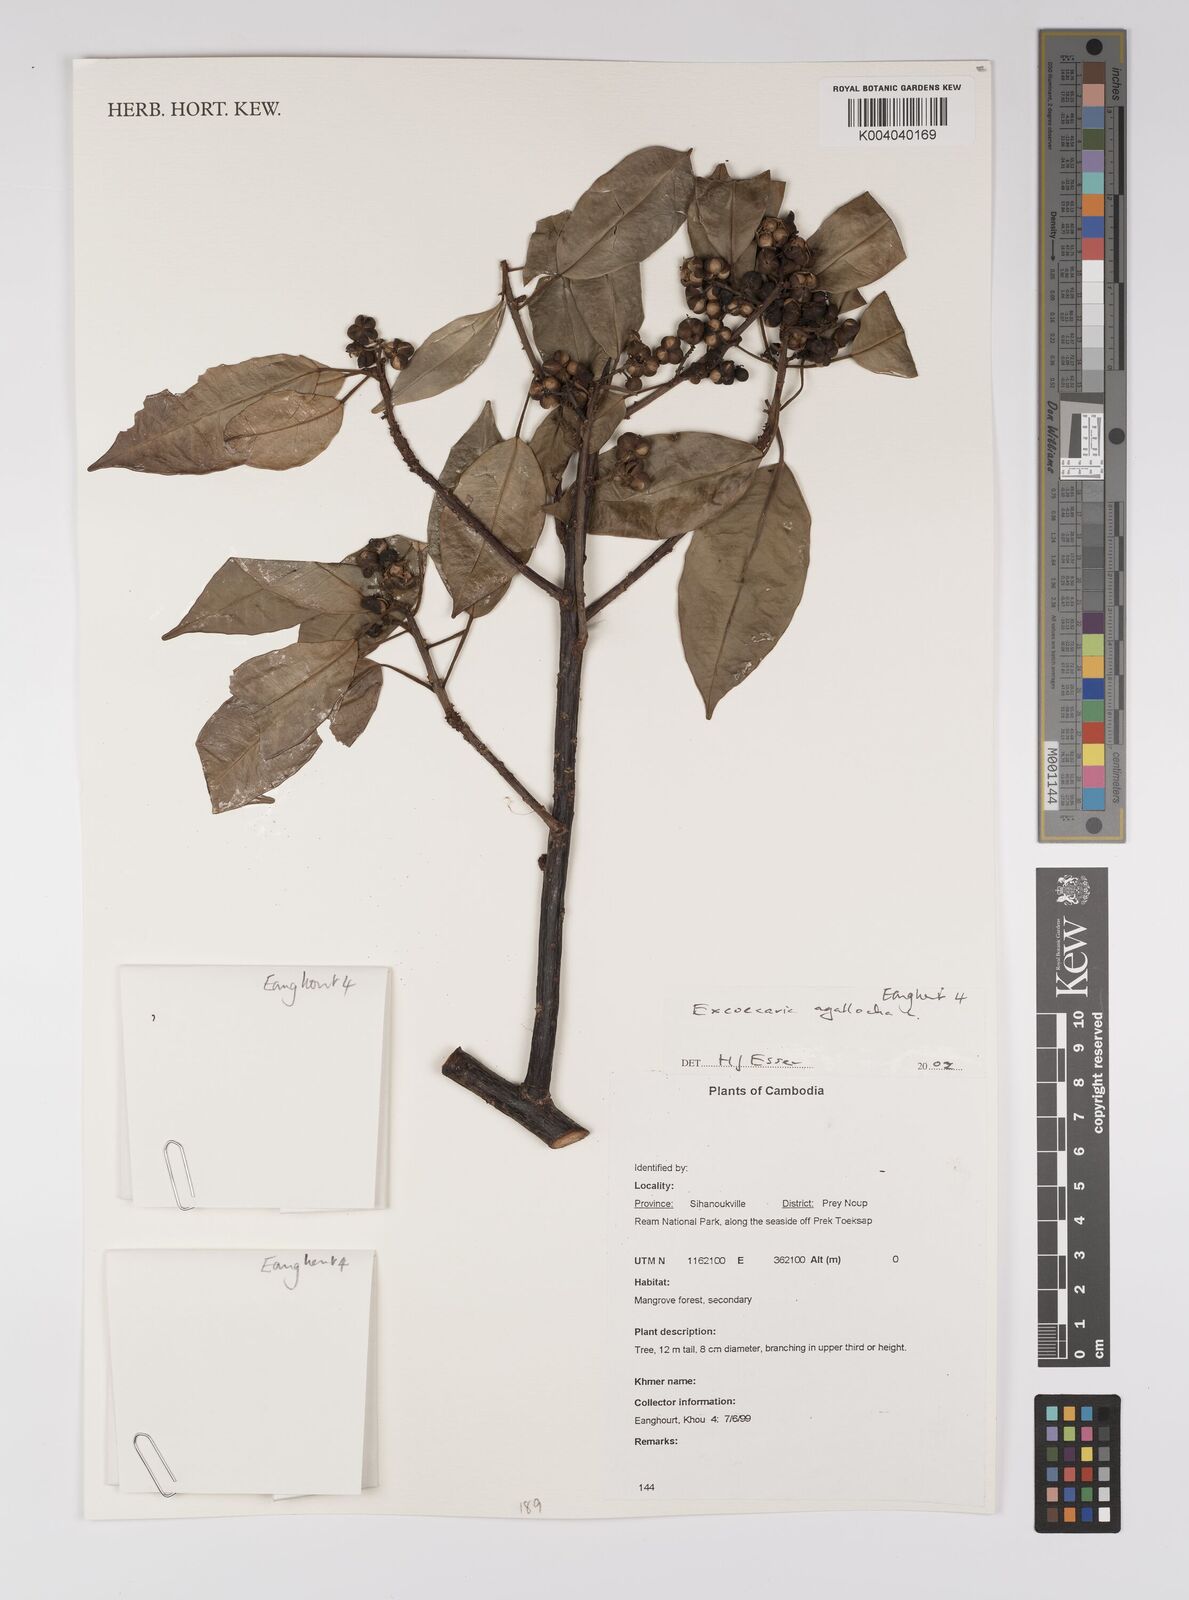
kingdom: Plantae
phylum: Tracheophyta
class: Magnoliopsida
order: Malpighiales
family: Euphorbiaceae
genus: Excoecaria
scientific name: Excoecaria agallocha
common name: River poisontree
